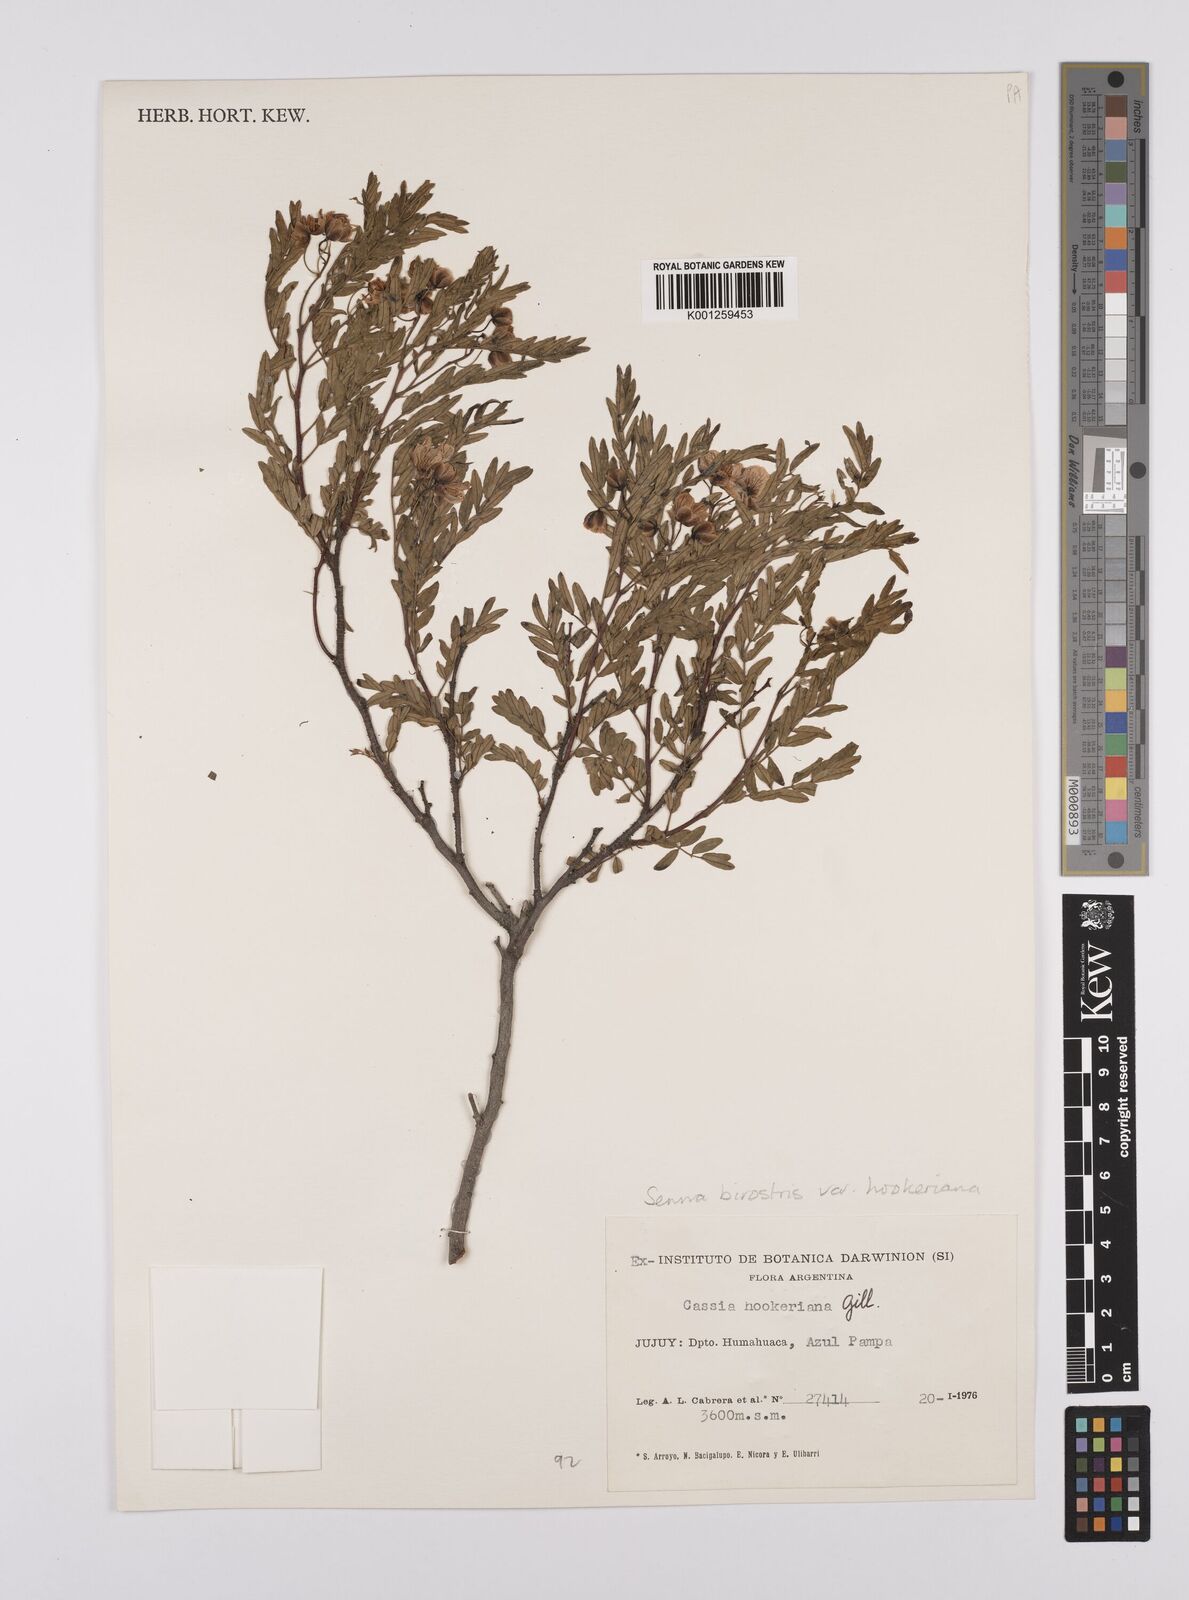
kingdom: Plantae
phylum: Tracheophyta
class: Magnoliopsida
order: Fabales
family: Fabaceae
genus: Senna
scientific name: Senna birostris
